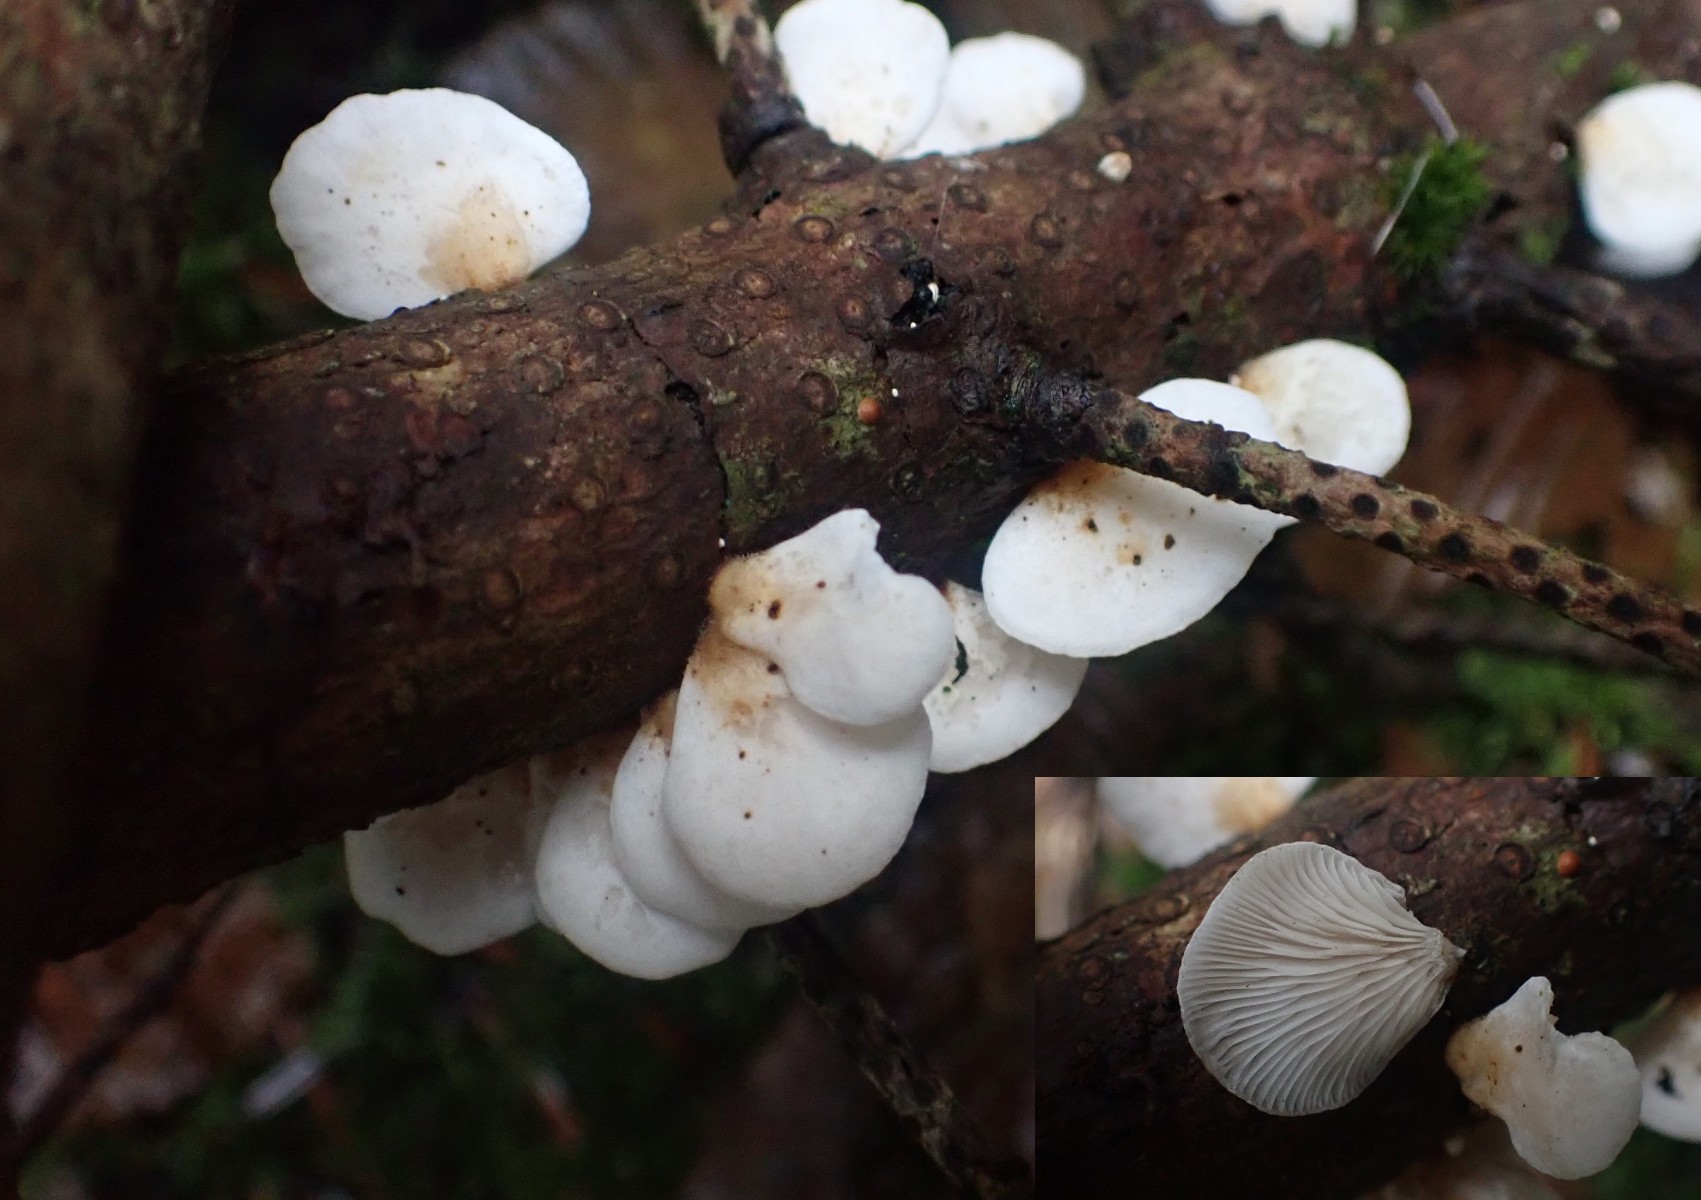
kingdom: Fungi
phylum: Basidiomycota
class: Agaricomycetes
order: Agaricales
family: Mycenaceae
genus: Panellus
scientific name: Panellus mitis
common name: mild epaulethat
